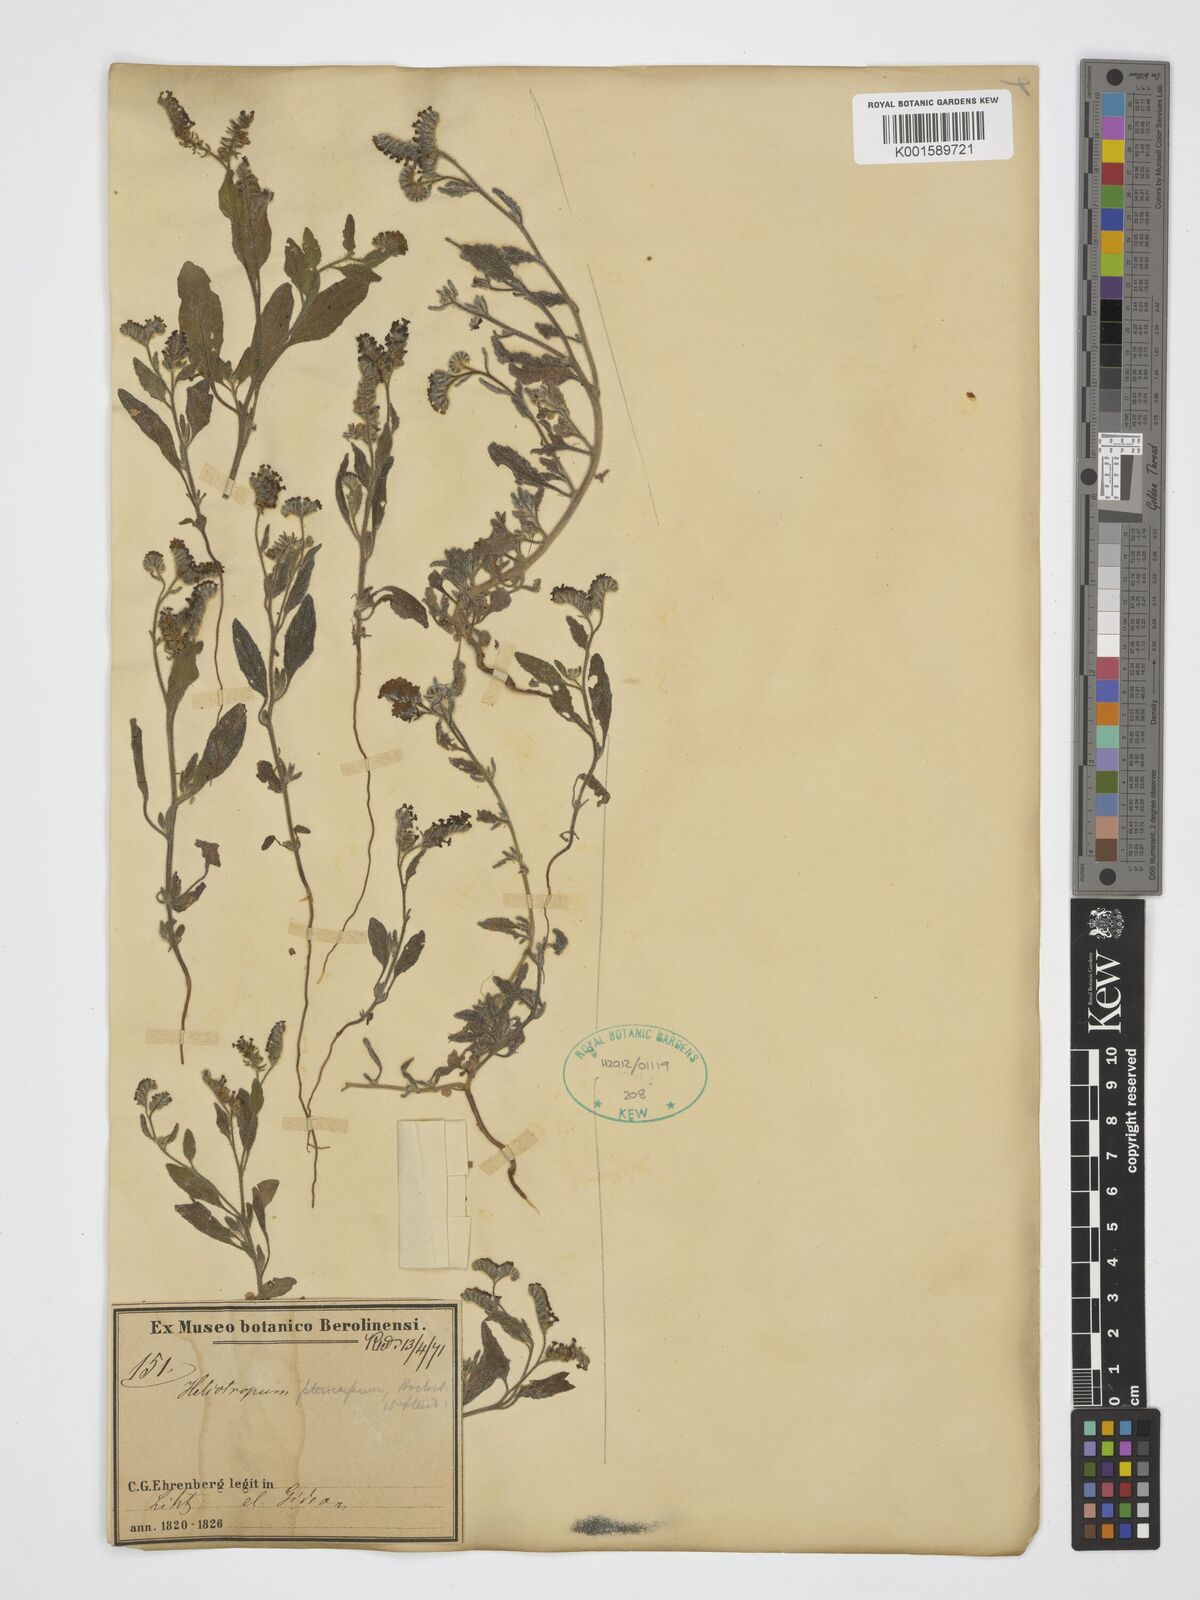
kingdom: Plantae
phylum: Tracheophyta
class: Magnoliopsida
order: Boraginales
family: Heliotropiaceae
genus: Heliotropium
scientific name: Heliotropium pterocarpum
